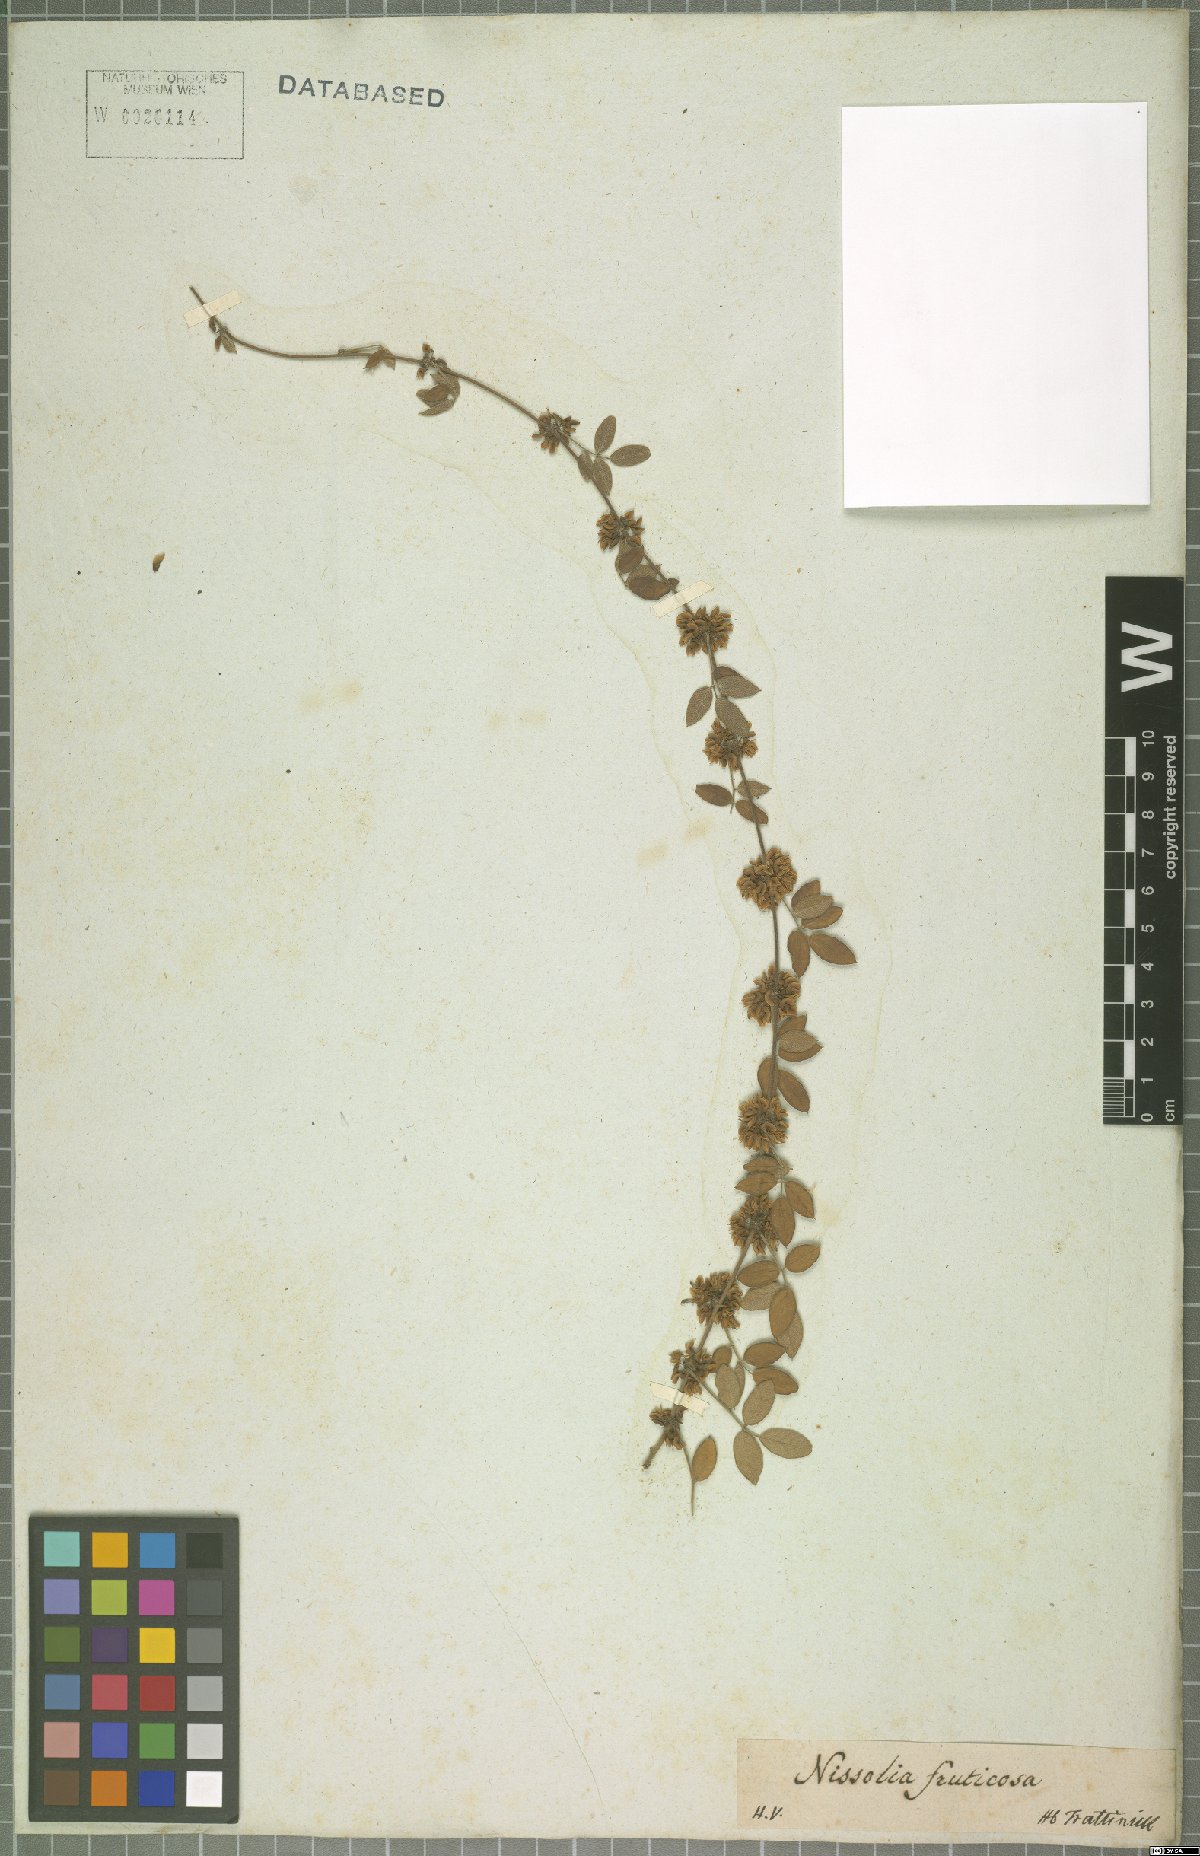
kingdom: Plantae
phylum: Tracheophyta
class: Magnoliopsida
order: Fabales
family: Fabaceae
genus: Nissolia
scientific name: Nissolia fruticosa
